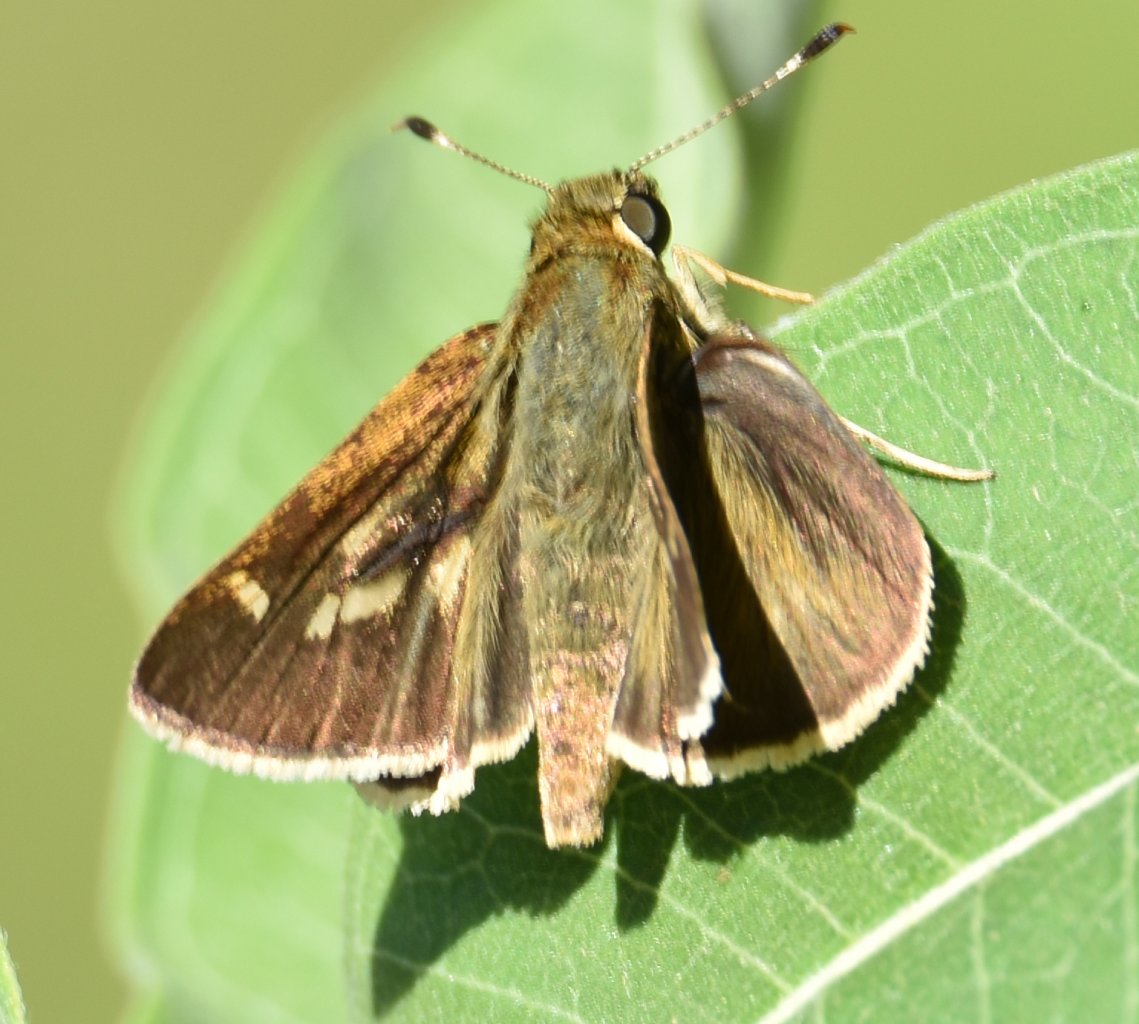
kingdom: Animalia
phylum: Arthropoda
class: Insecta
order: Lepidoptera
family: Hesperiidae
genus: Polites
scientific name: Polites egeremet
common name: Northern Broken-Dash
